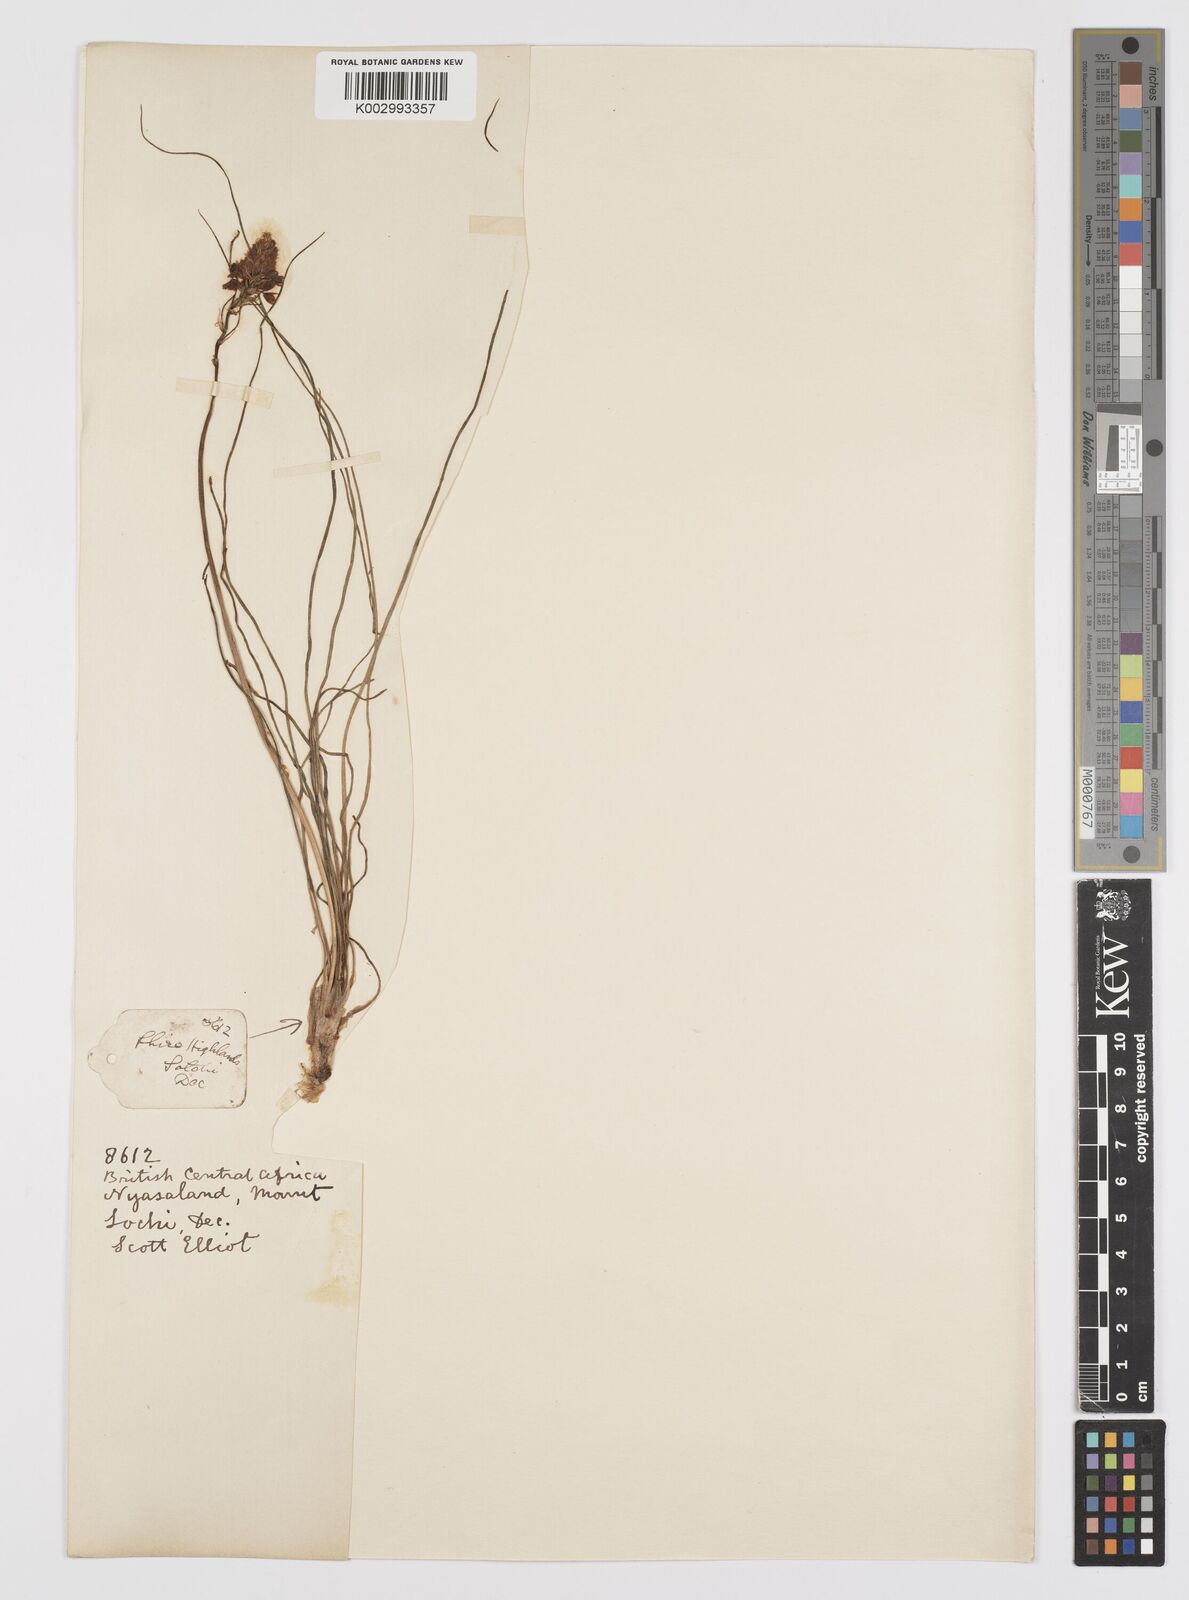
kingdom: Plantae
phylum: Tracheophyta
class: Liliopsida
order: Asparagales
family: Asphodelaceae
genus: Bulbine
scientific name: Bulbine abyssinica
